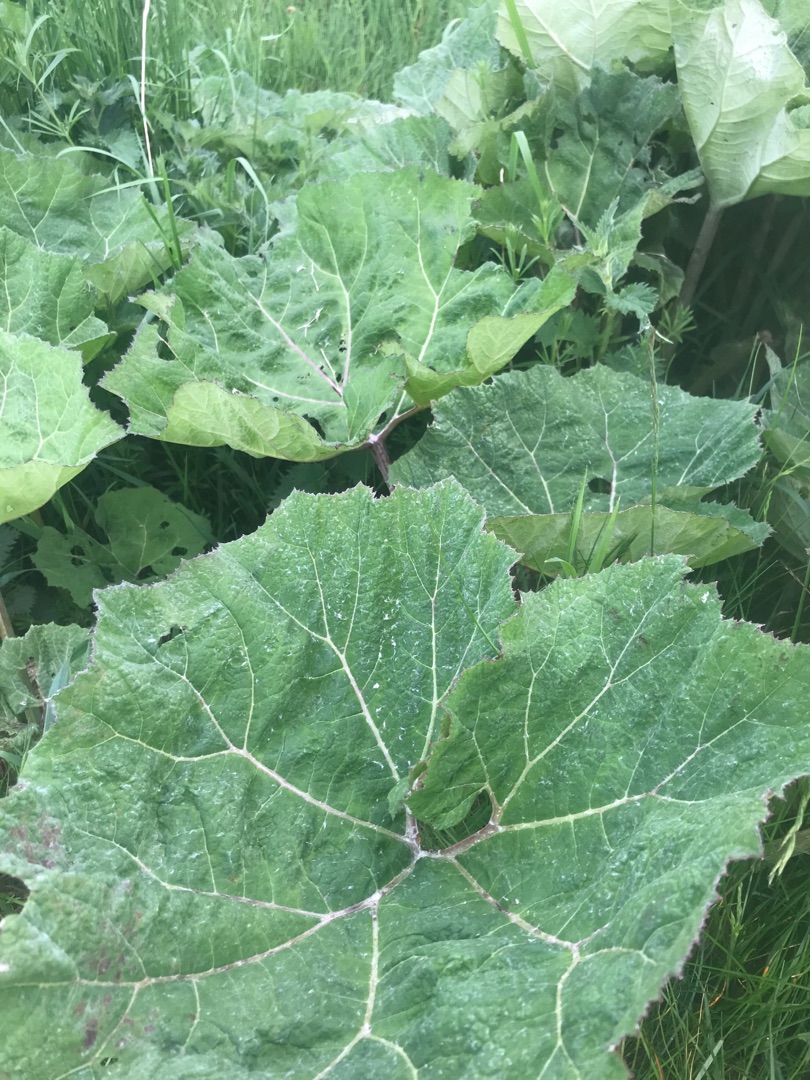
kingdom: Plantae
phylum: Tracheophyta
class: Magnoliopsida
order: Asterales
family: Asteraceae
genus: Petasites
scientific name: Petasites hybridus
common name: Rød hestehov
